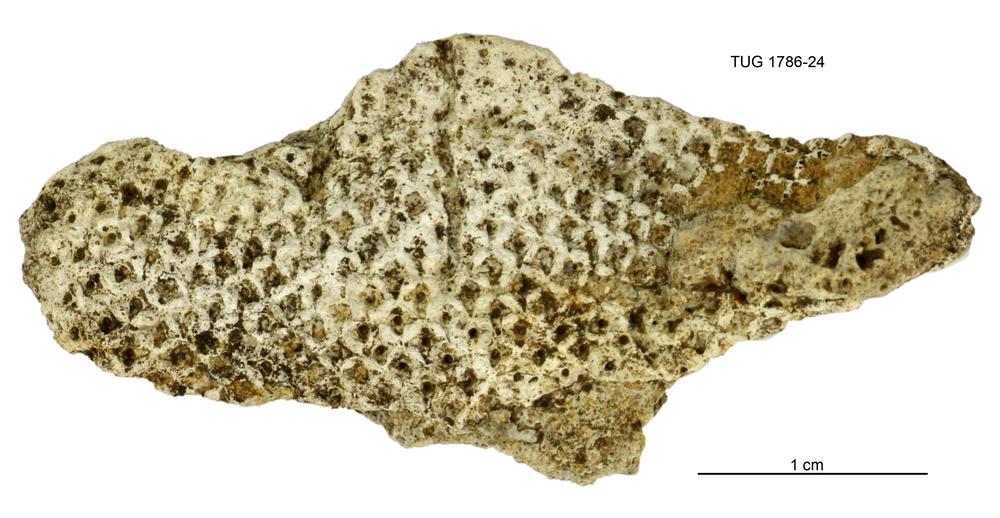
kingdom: Plantae
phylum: Chlorophyta
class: Chlorophyceae
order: Receptaculitales
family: Receptaculitaceae
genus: Receptaculites
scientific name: Receptaculites
